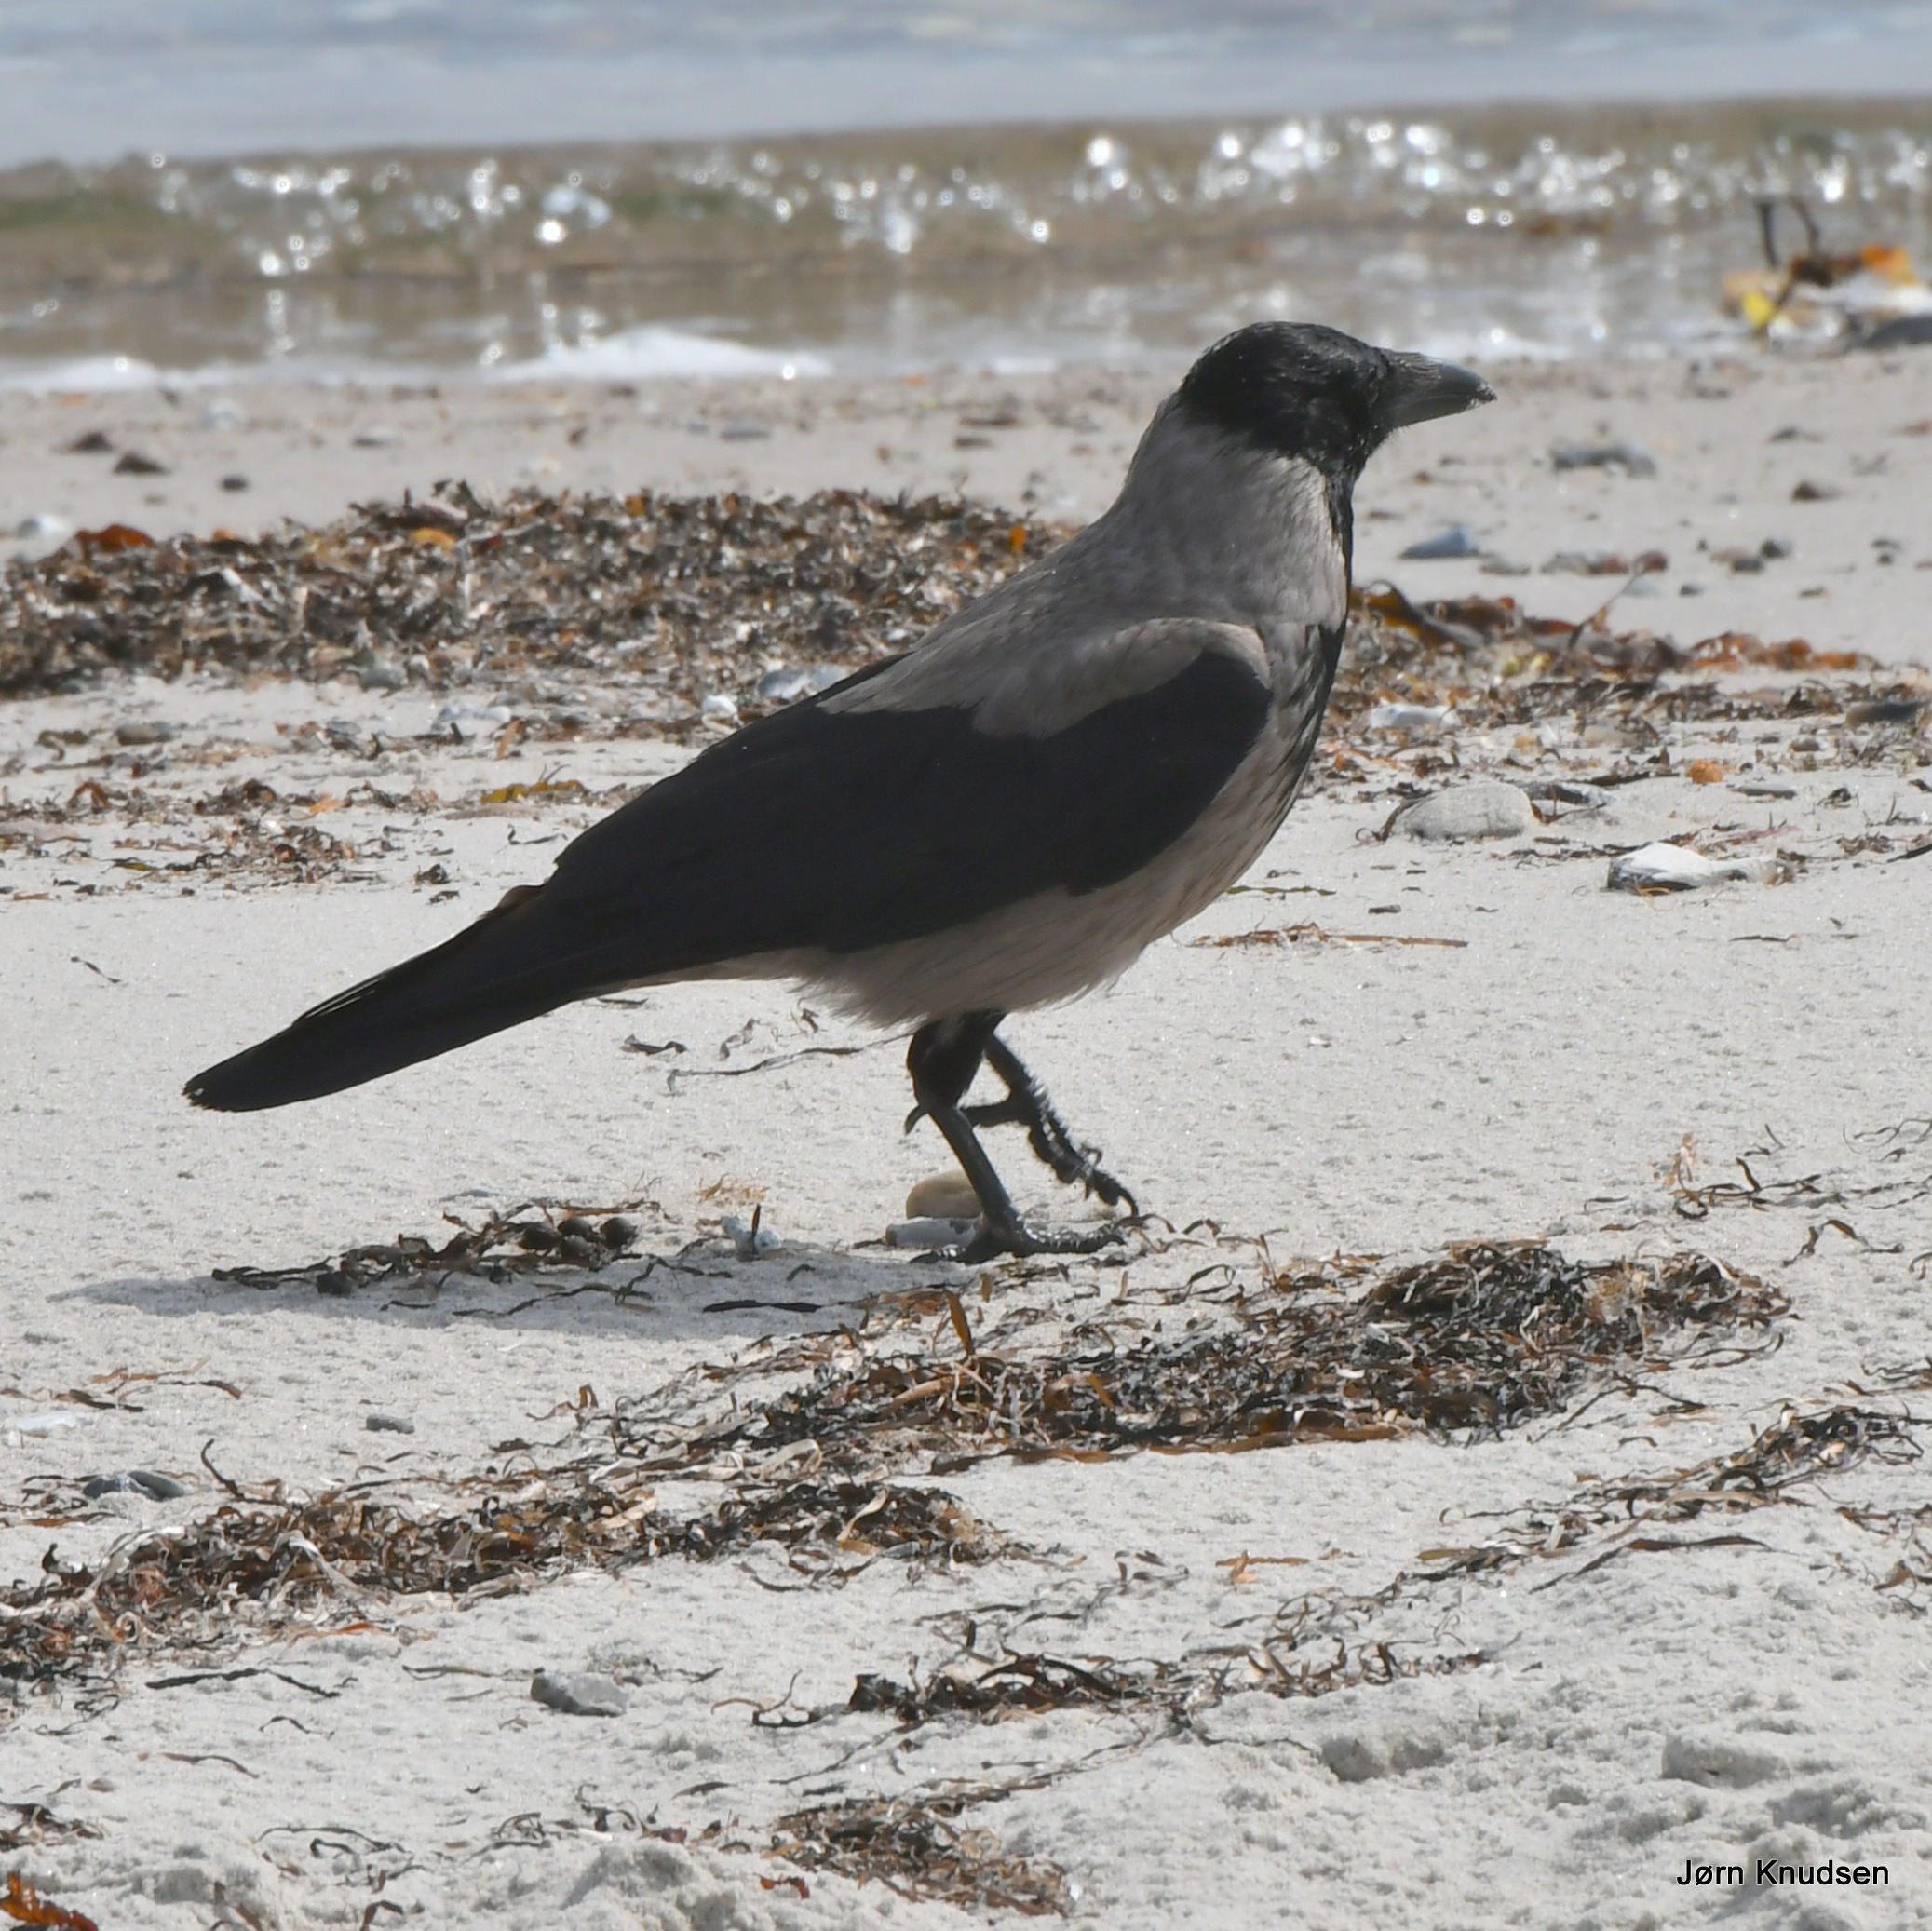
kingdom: Animalia
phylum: Chordata
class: Aves
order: Passeriformes
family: Corvidae
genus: Corvus
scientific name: Corvus cornix
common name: Gråkrage
